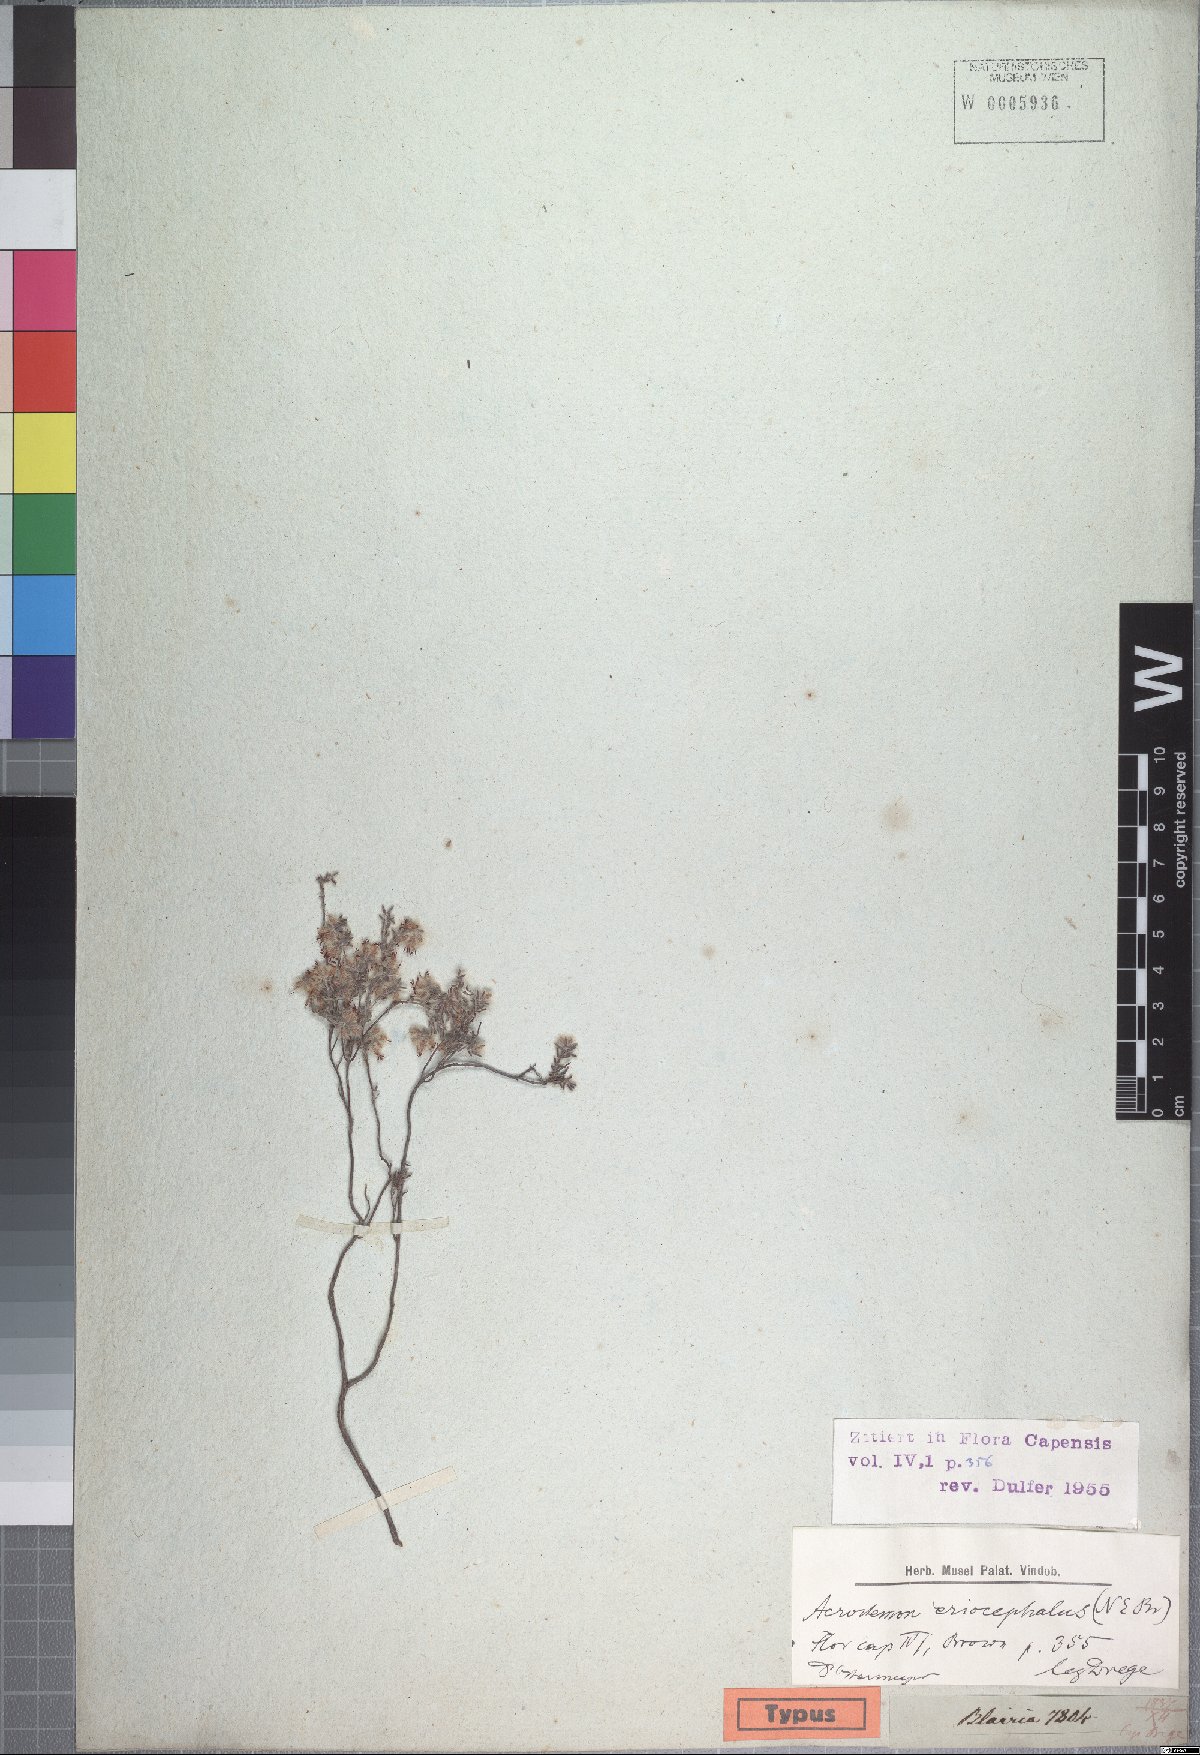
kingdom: Plantae
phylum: Tracheophyta
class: Magnoliopsida
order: Ericales
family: Ericaceae
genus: Erica
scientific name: Erica pilosiflora
